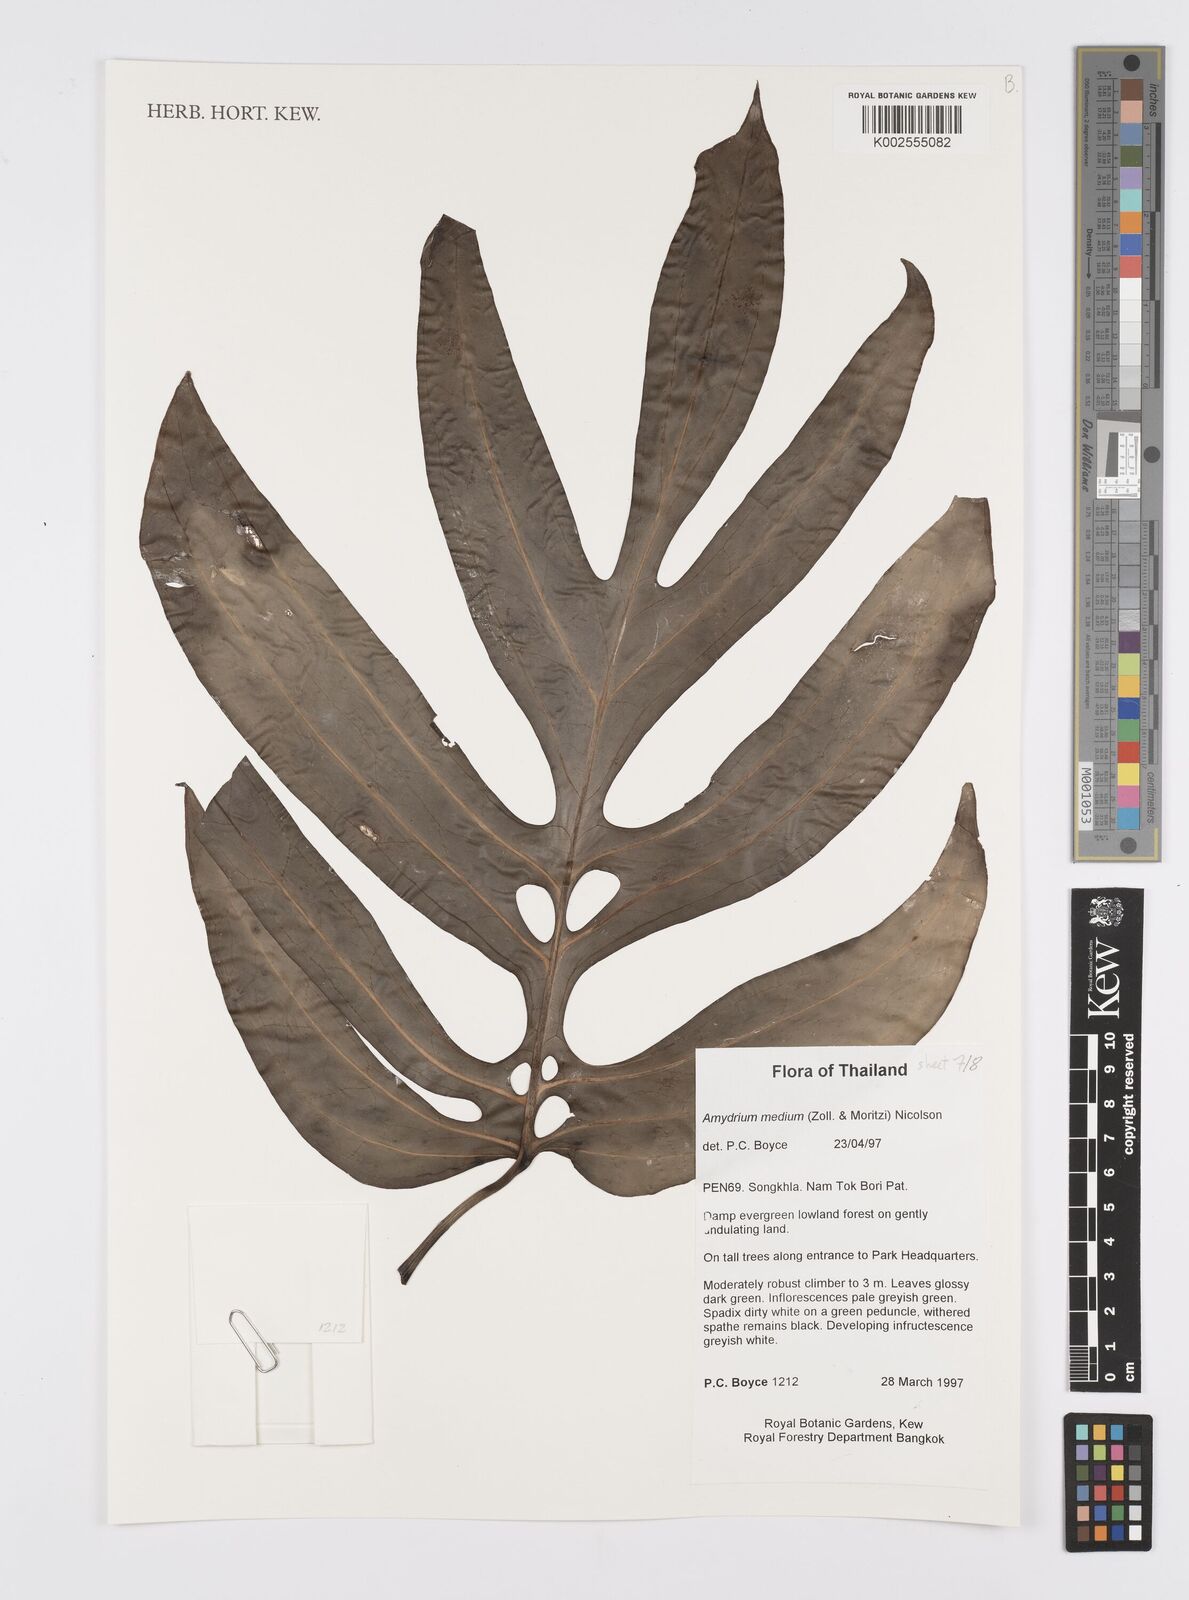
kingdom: Plantae
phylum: Tracheophyta
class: Liliopsida
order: Alismatales
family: Araceae
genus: Amydrium
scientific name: Amydrium medium
